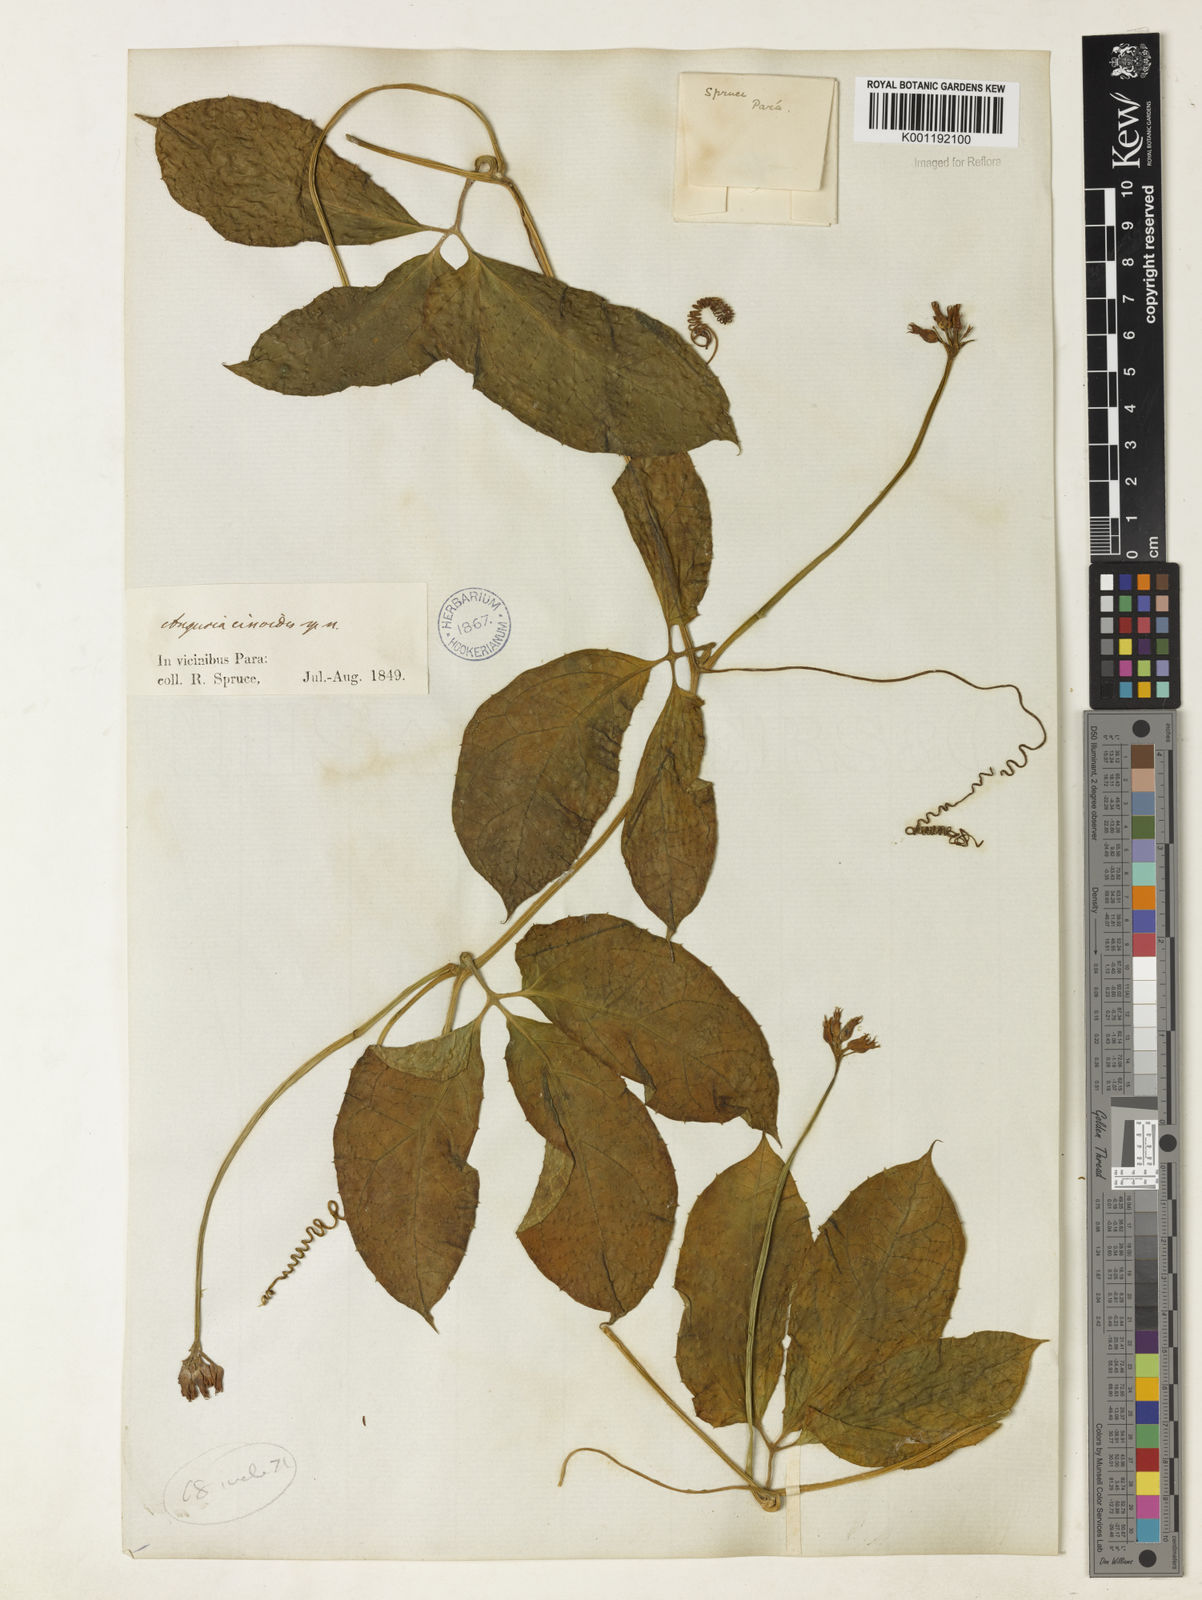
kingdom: Plantae
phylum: Tracheophyta
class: Magnoliopsida
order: Cucurbitales
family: Cucurbitaceae
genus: Gurania
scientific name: Gurania bignoniacea
